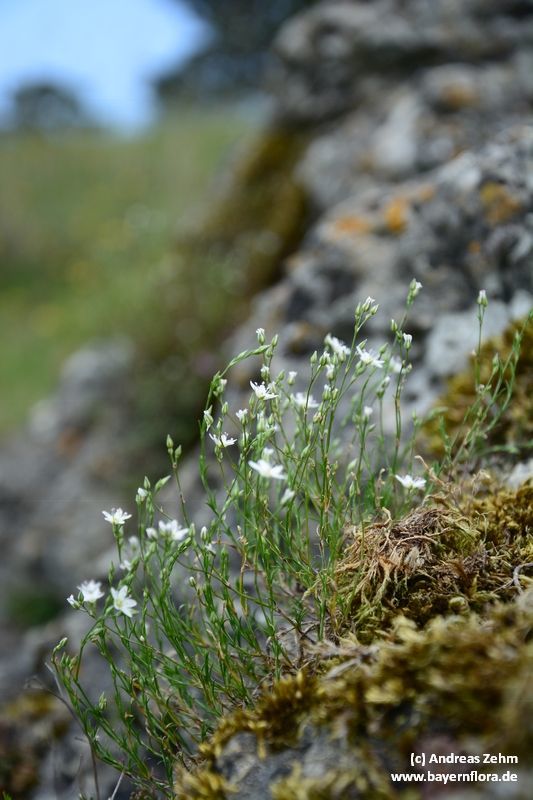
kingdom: Plantae
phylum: Tracheophyta
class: Magnoliopsida
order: Caryophyllales
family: Caryophyllaceae
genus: Sabulina
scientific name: Sabulina verna
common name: Spring sandwort
